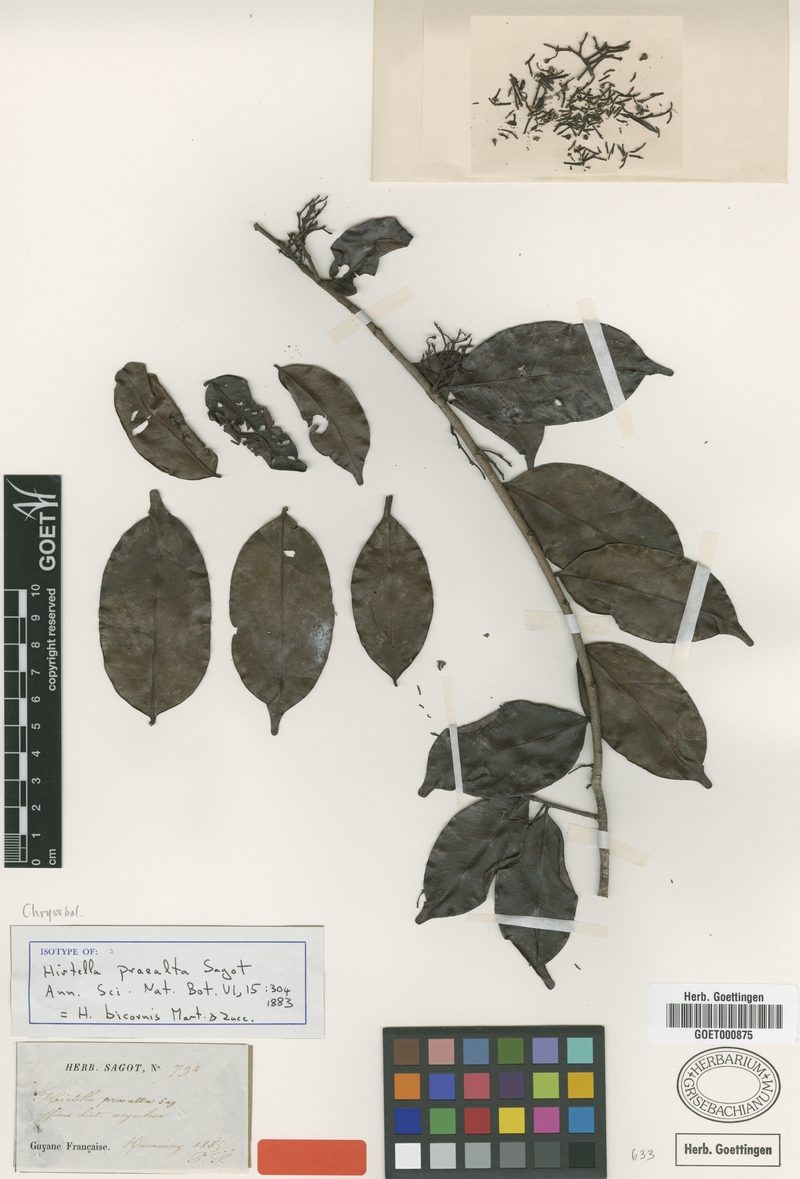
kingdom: Plantae
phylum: Tracheophyta
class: Magnoliopsida
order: Malpighiales
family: Chrysobalanaceae
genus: Hirtella
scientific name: Hirtella bicornis
